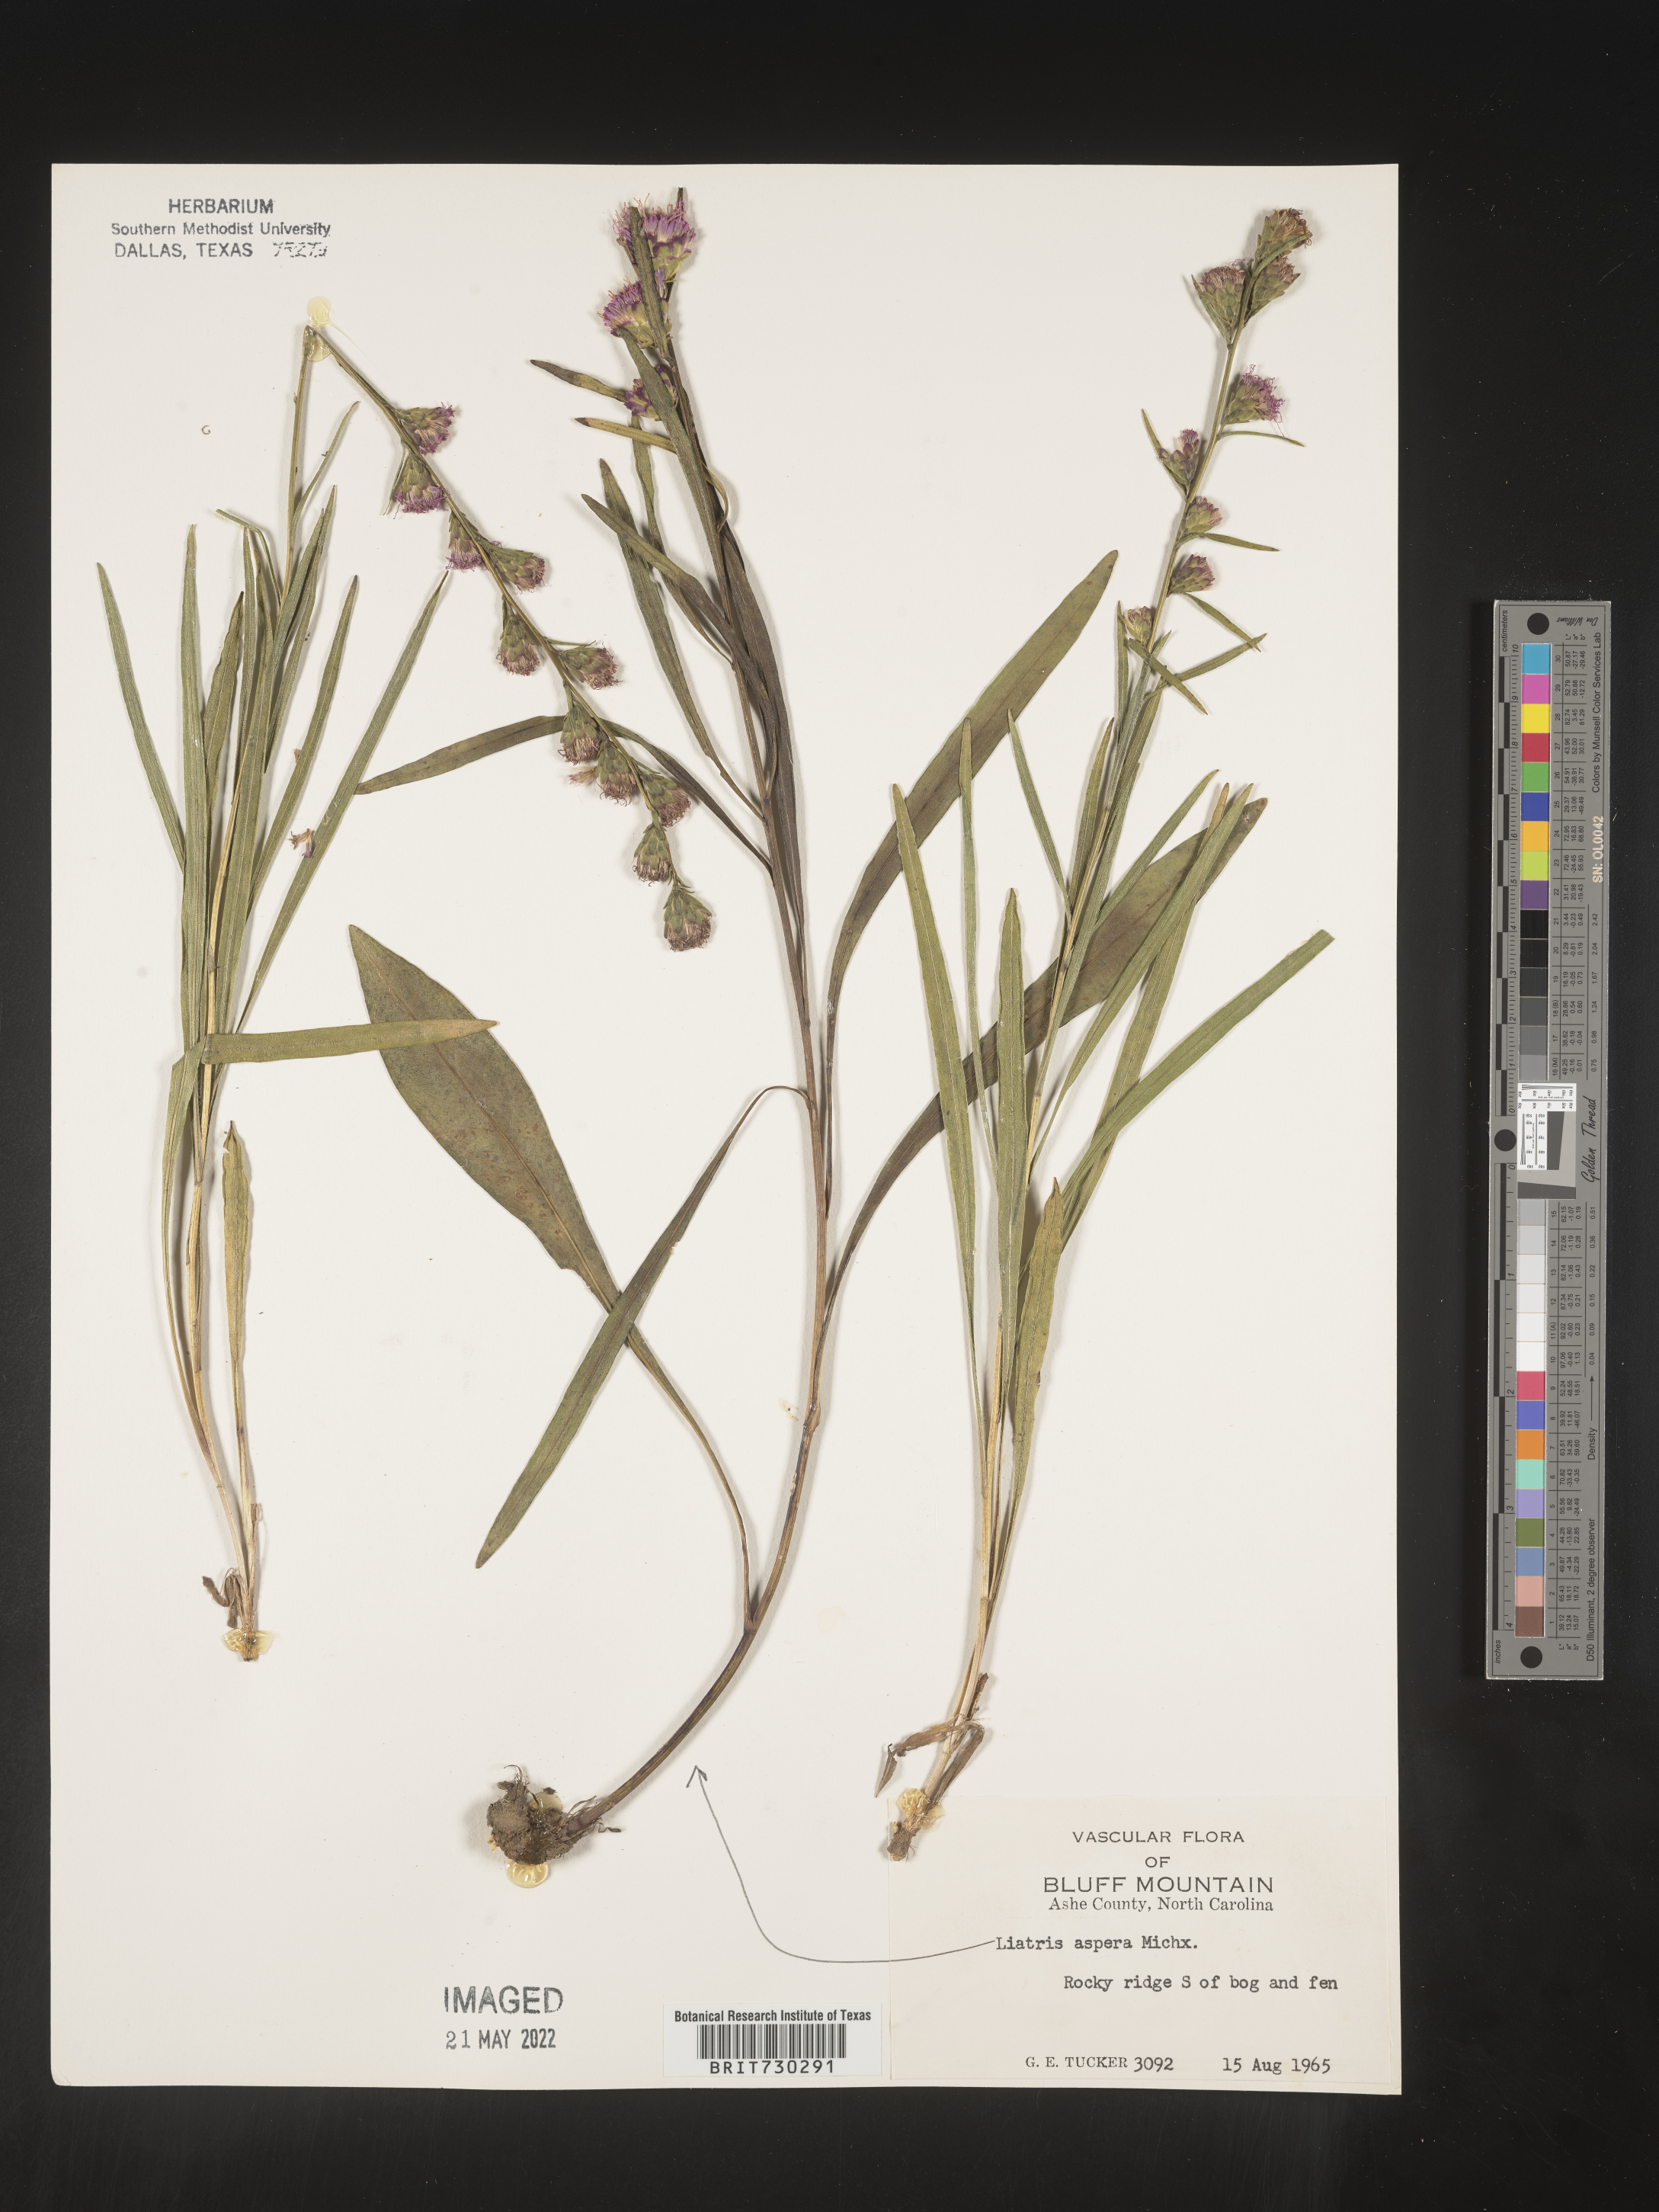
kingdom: Plantae
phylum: Tracheophyta
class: Magnoliopsida
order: Asterales
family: Asteraceae
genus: Liatris
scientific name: Liatris aspera
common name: Lacerate blazing-star
